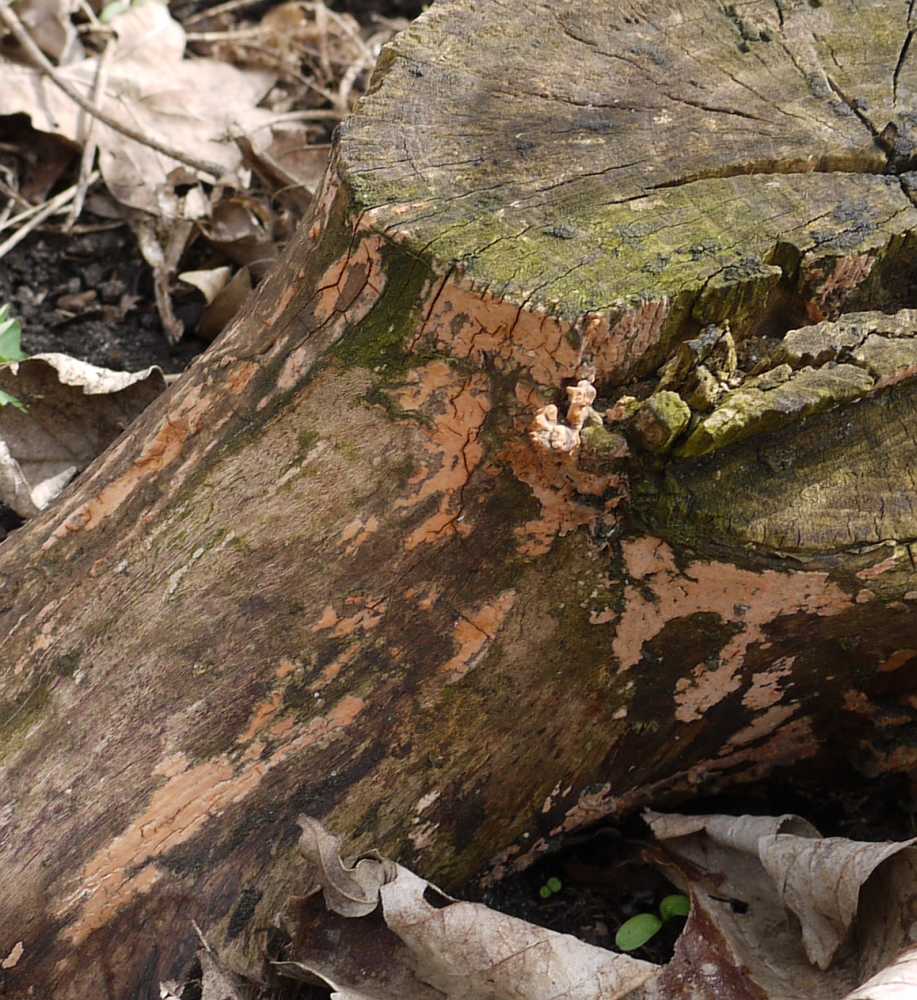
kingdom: Fungi
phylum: Basidiomycota
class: Agaricomycetes
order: Russulales
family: Peniophoraceae
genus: Peniophora
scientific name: Peniophora incarnata
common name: laksefarvet voksskind
